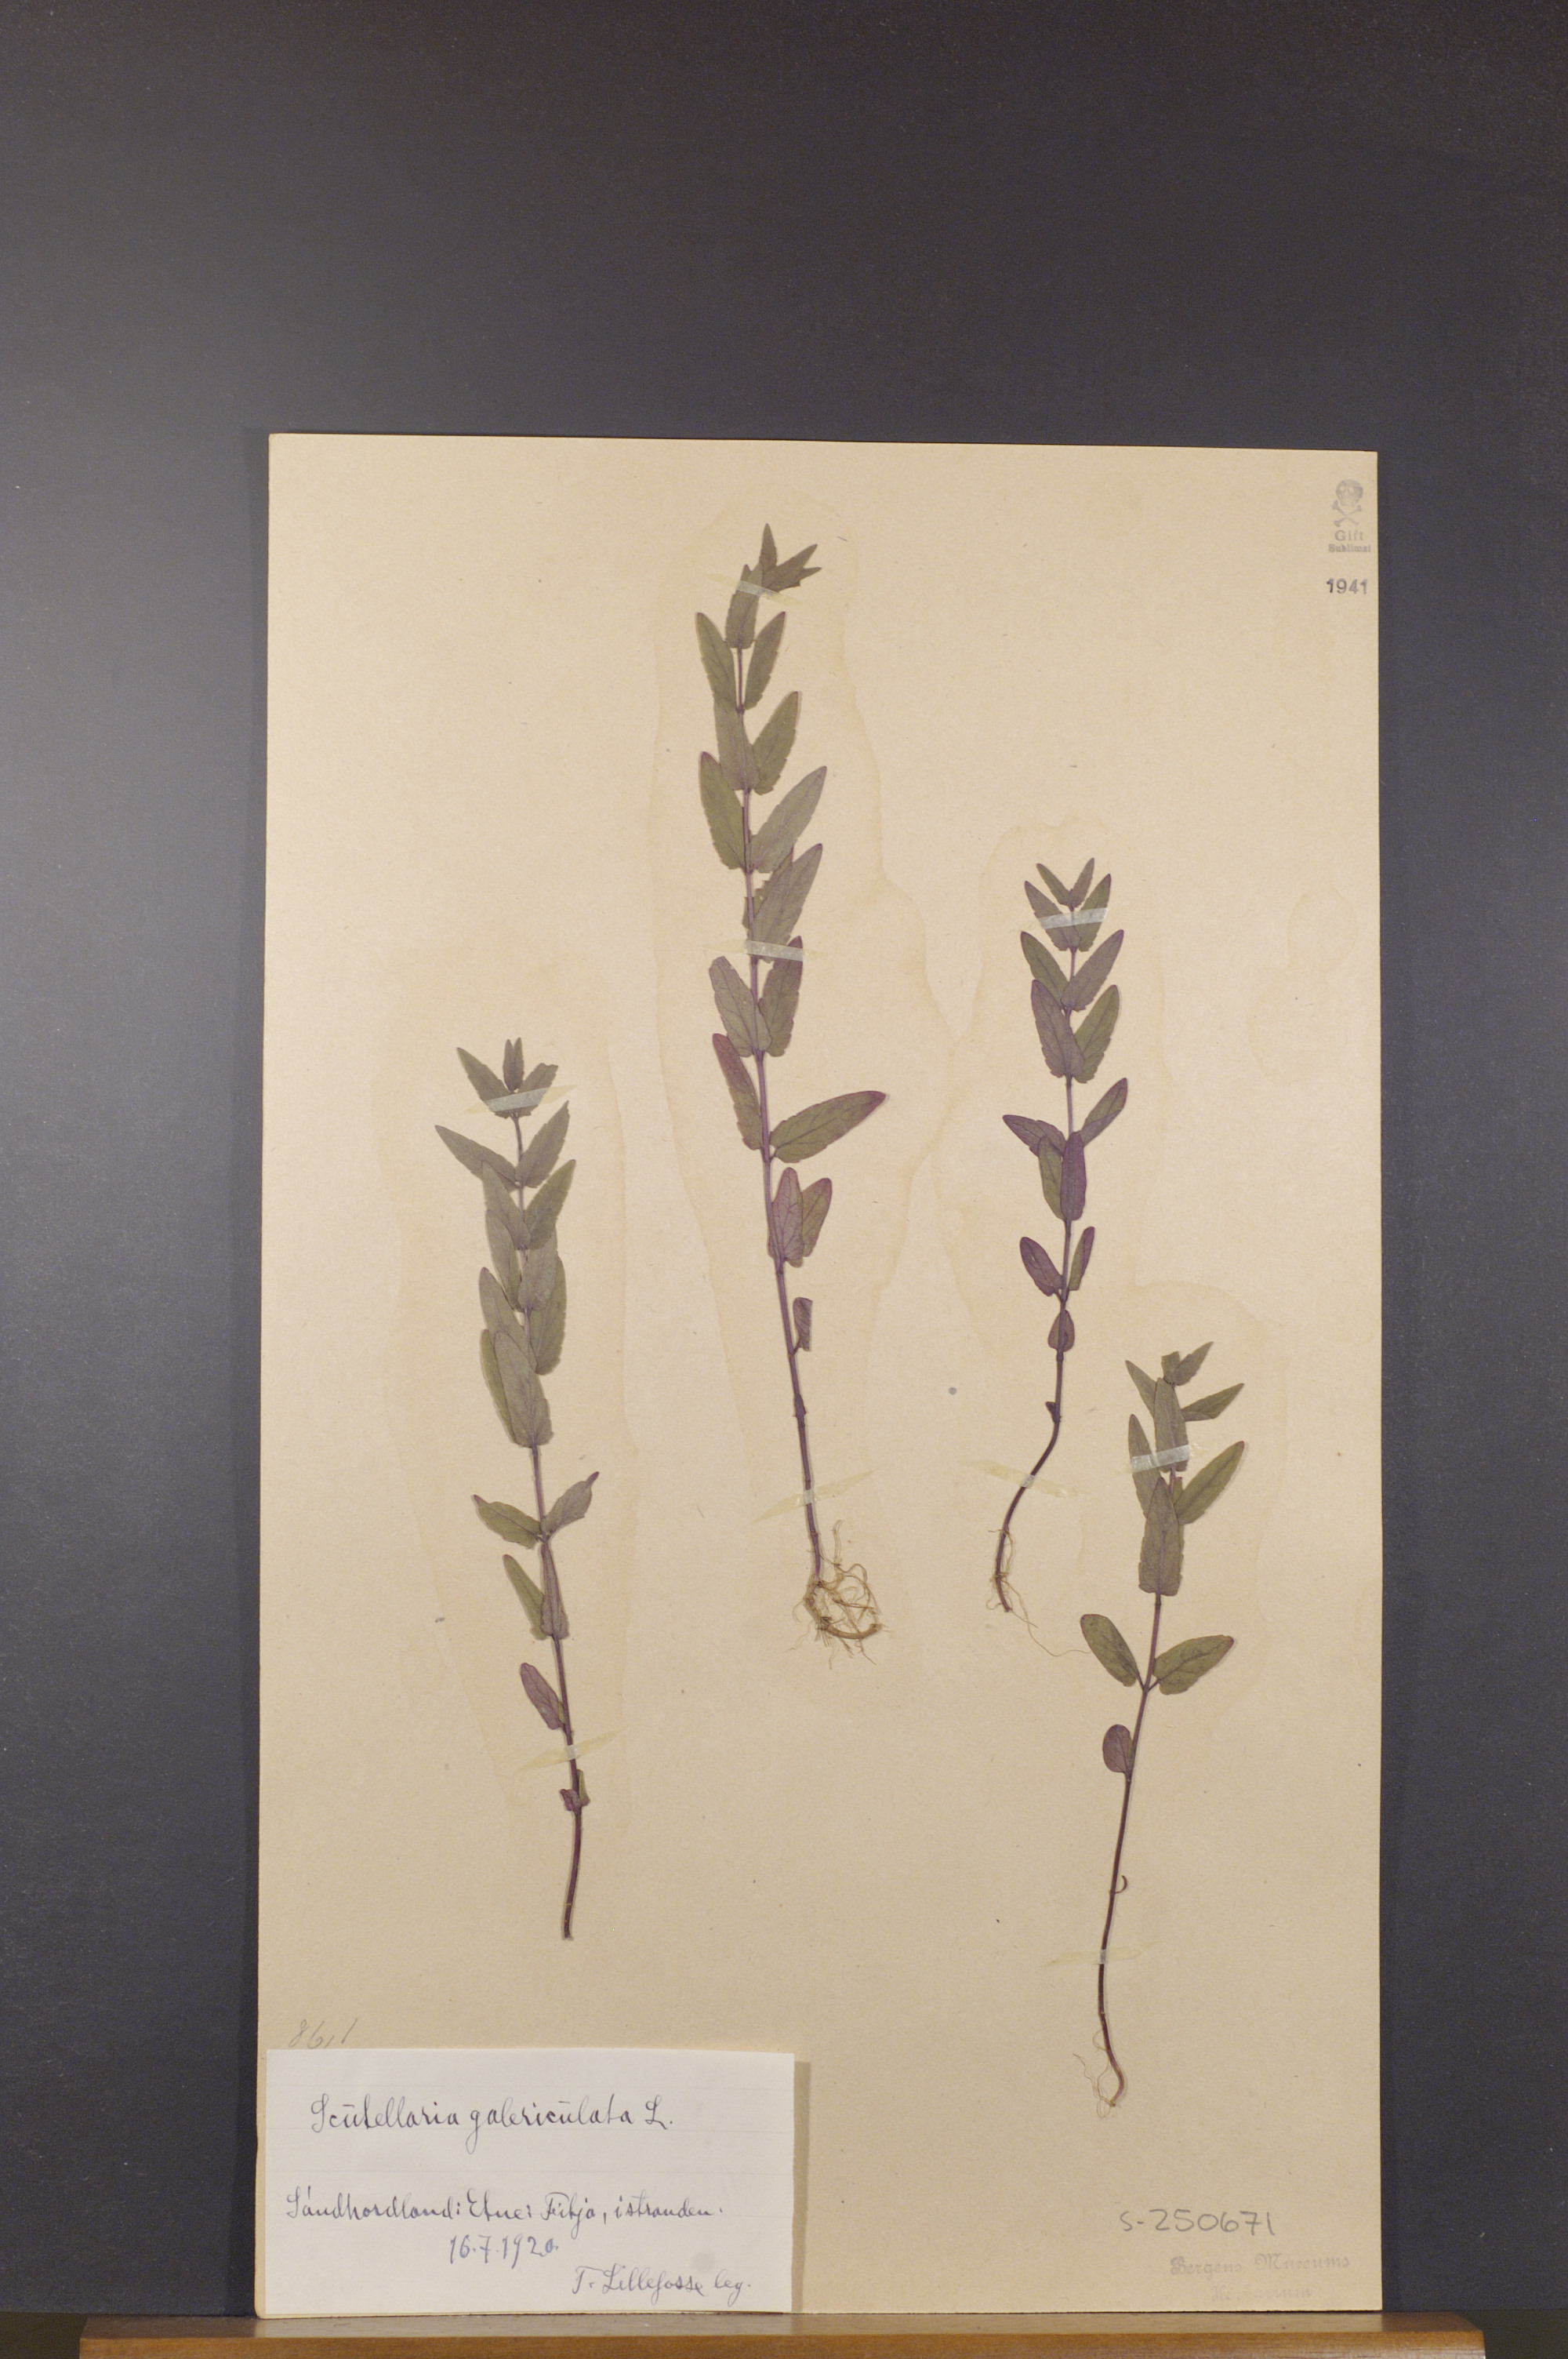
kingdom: Plantae
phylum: Tracheophyta
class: Magnoliopsida
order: Lamiales
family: Lamiaceae
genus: Scutellaria
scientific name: Scutellaria galericulata
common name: Skullcap
